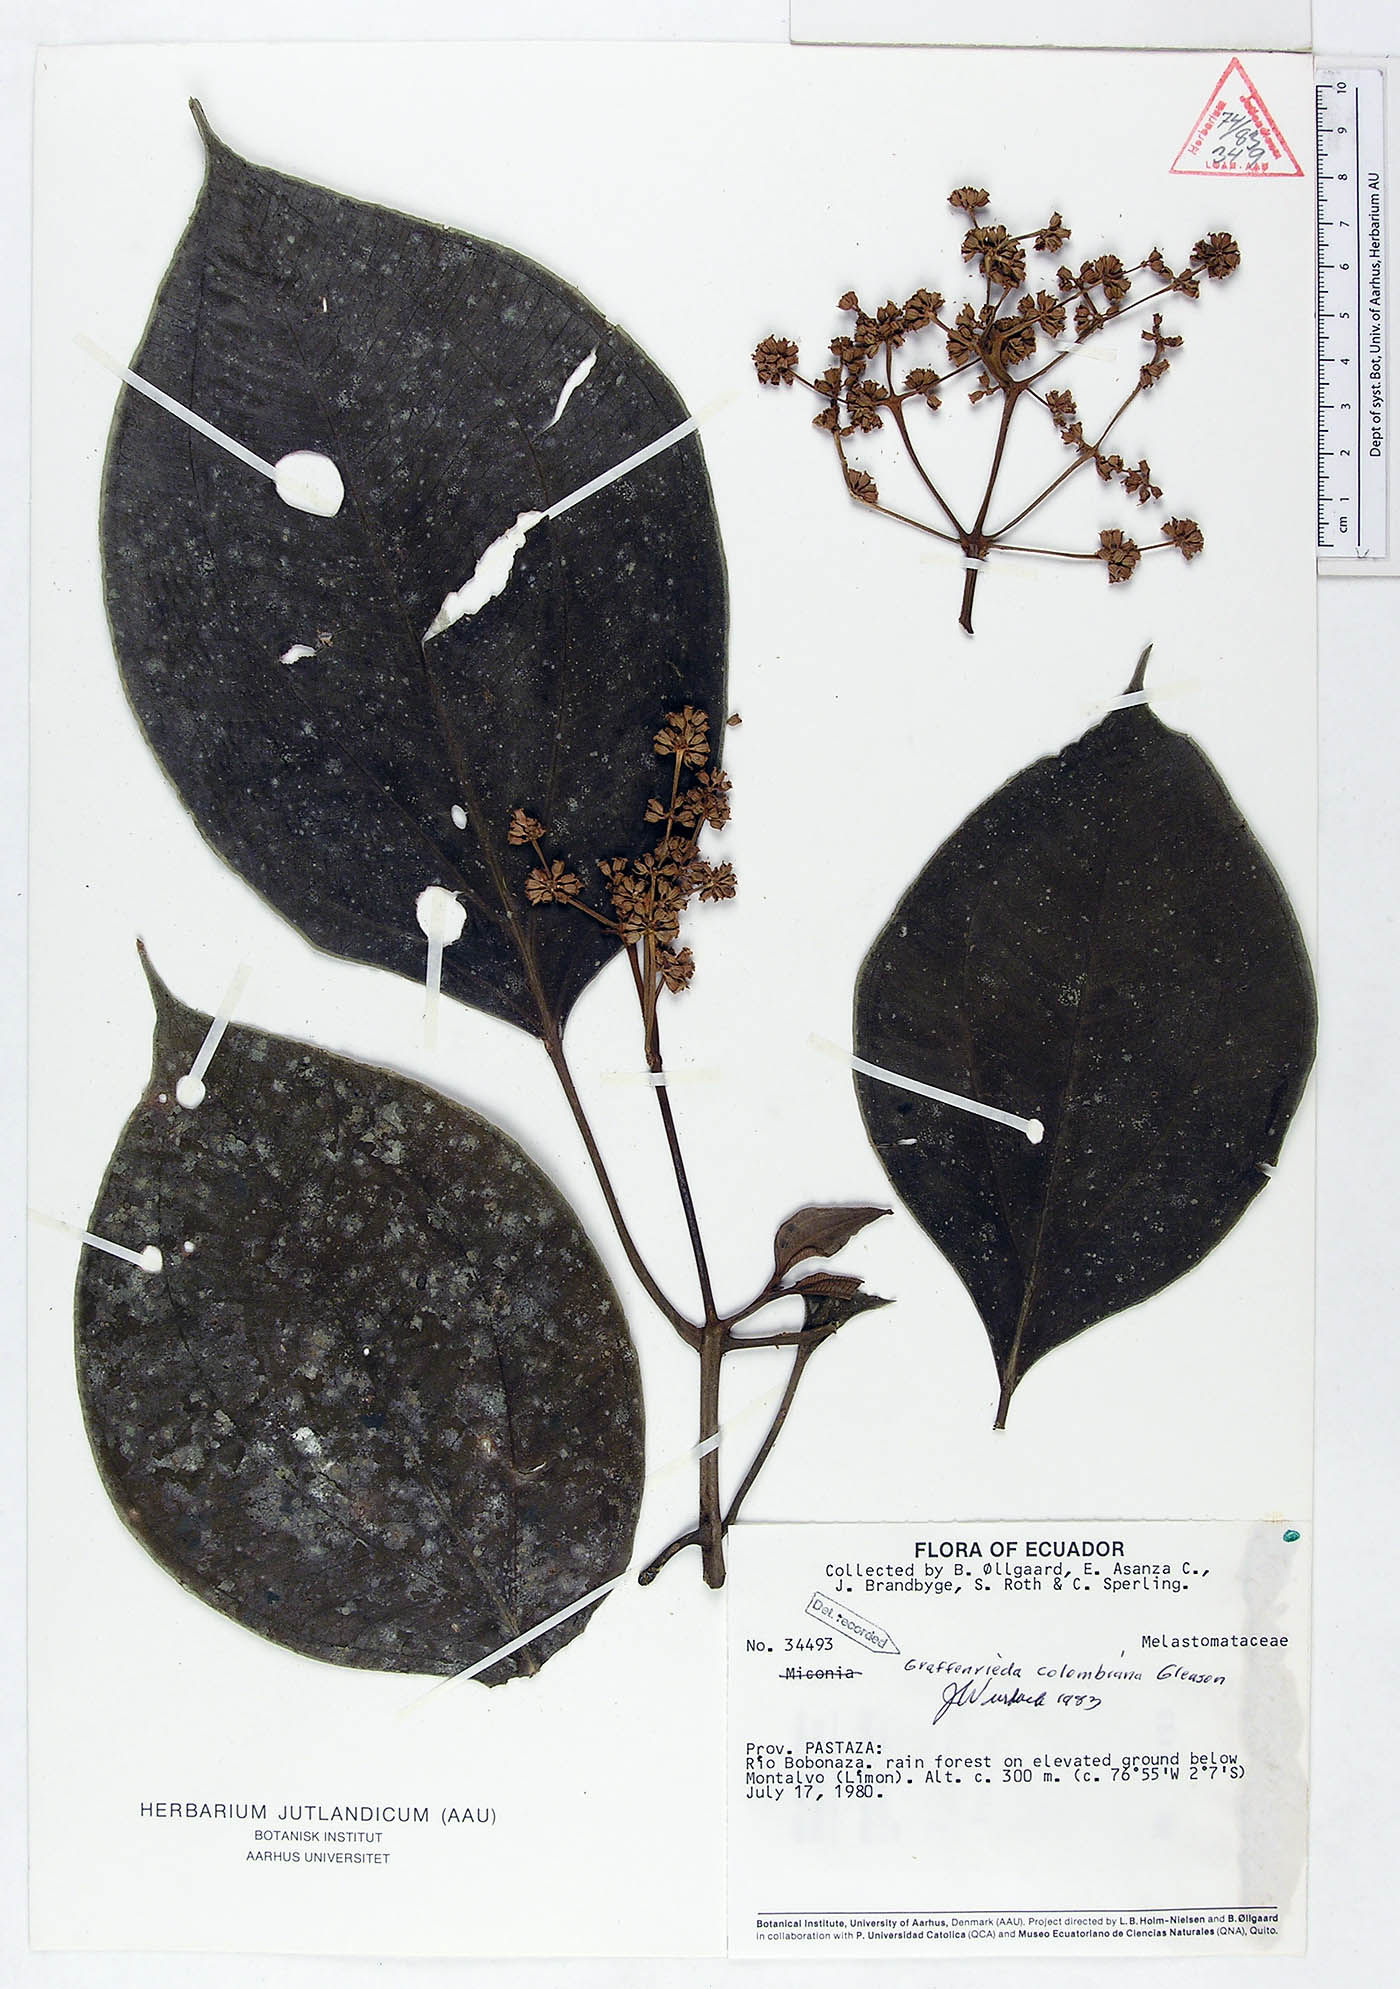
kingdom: Plantae
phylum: Tracheophyta
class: Magnoliopsida
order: Myrtales
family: Melastomataceae
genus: Graffenrieda
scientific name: Graffenrieda colombiana
